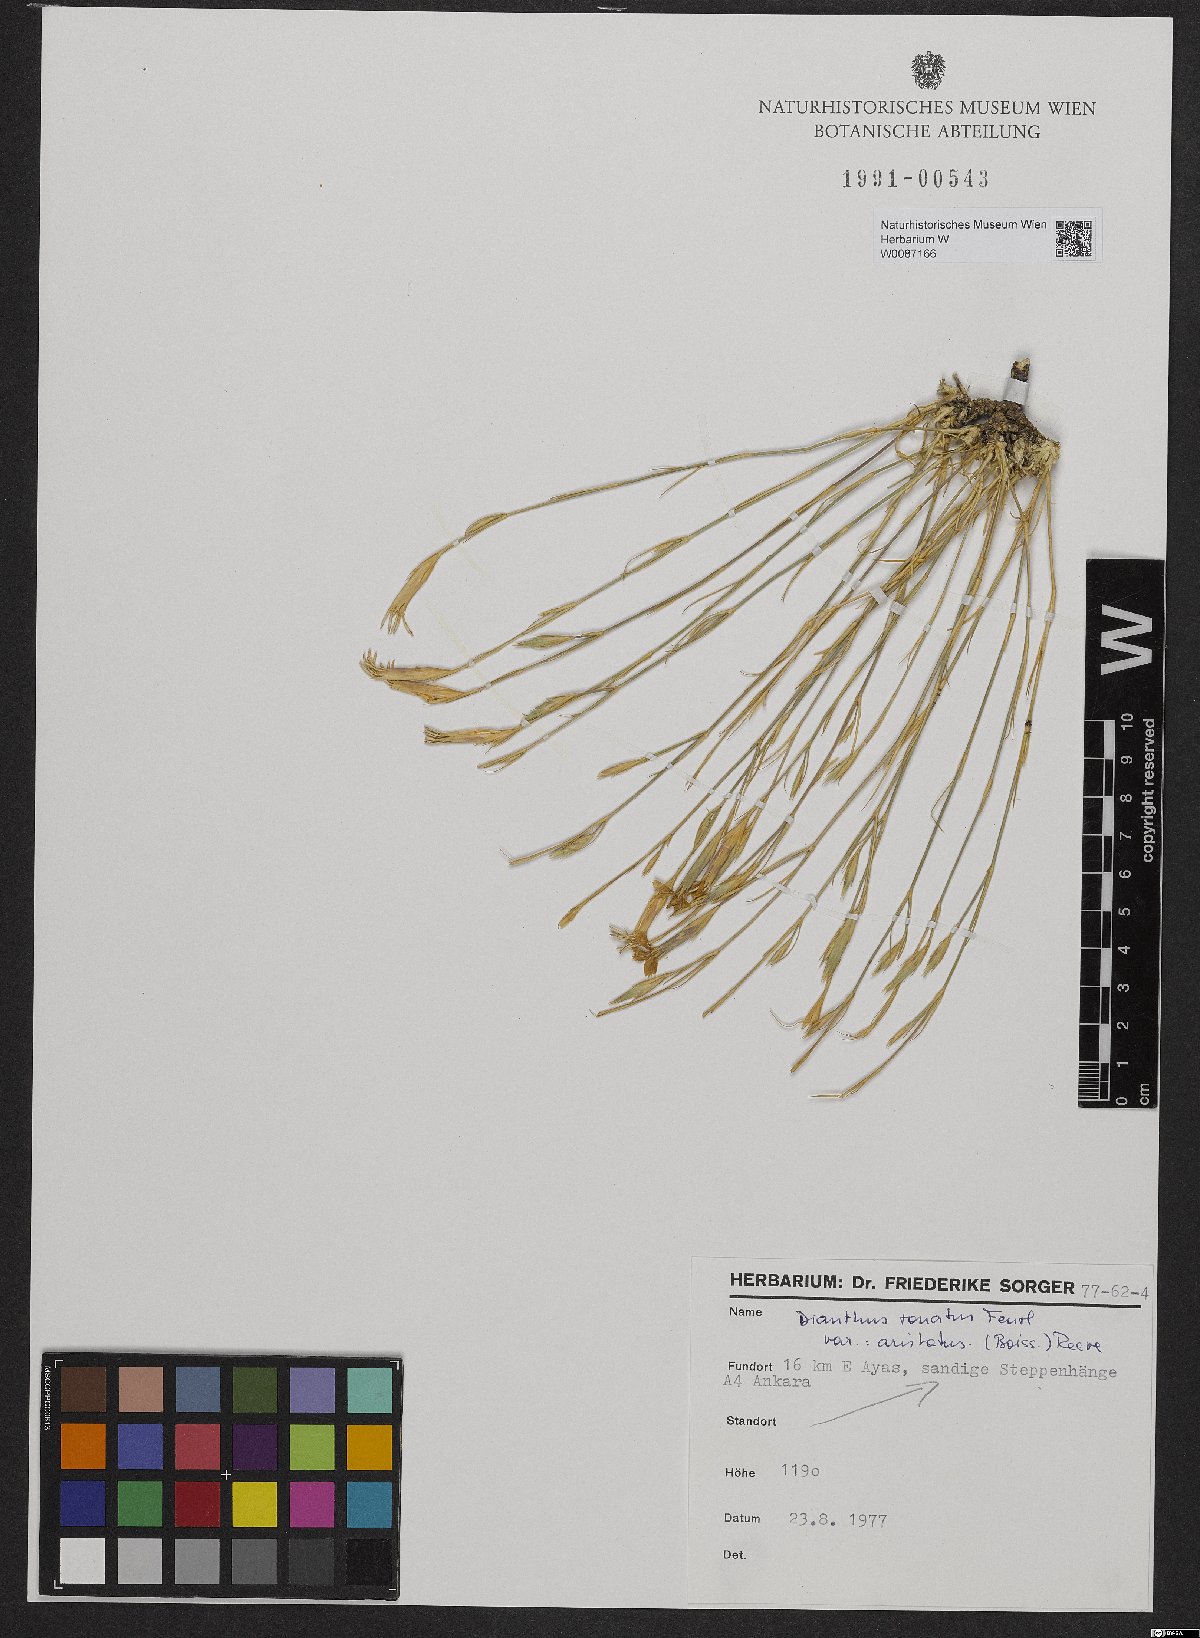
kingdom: Plantae
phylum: Tracheophyta
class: Magnoliopsida
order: Caryophyllales
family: Caryophyllaceae
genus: Dianthus
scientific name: Dianthus aristatus
